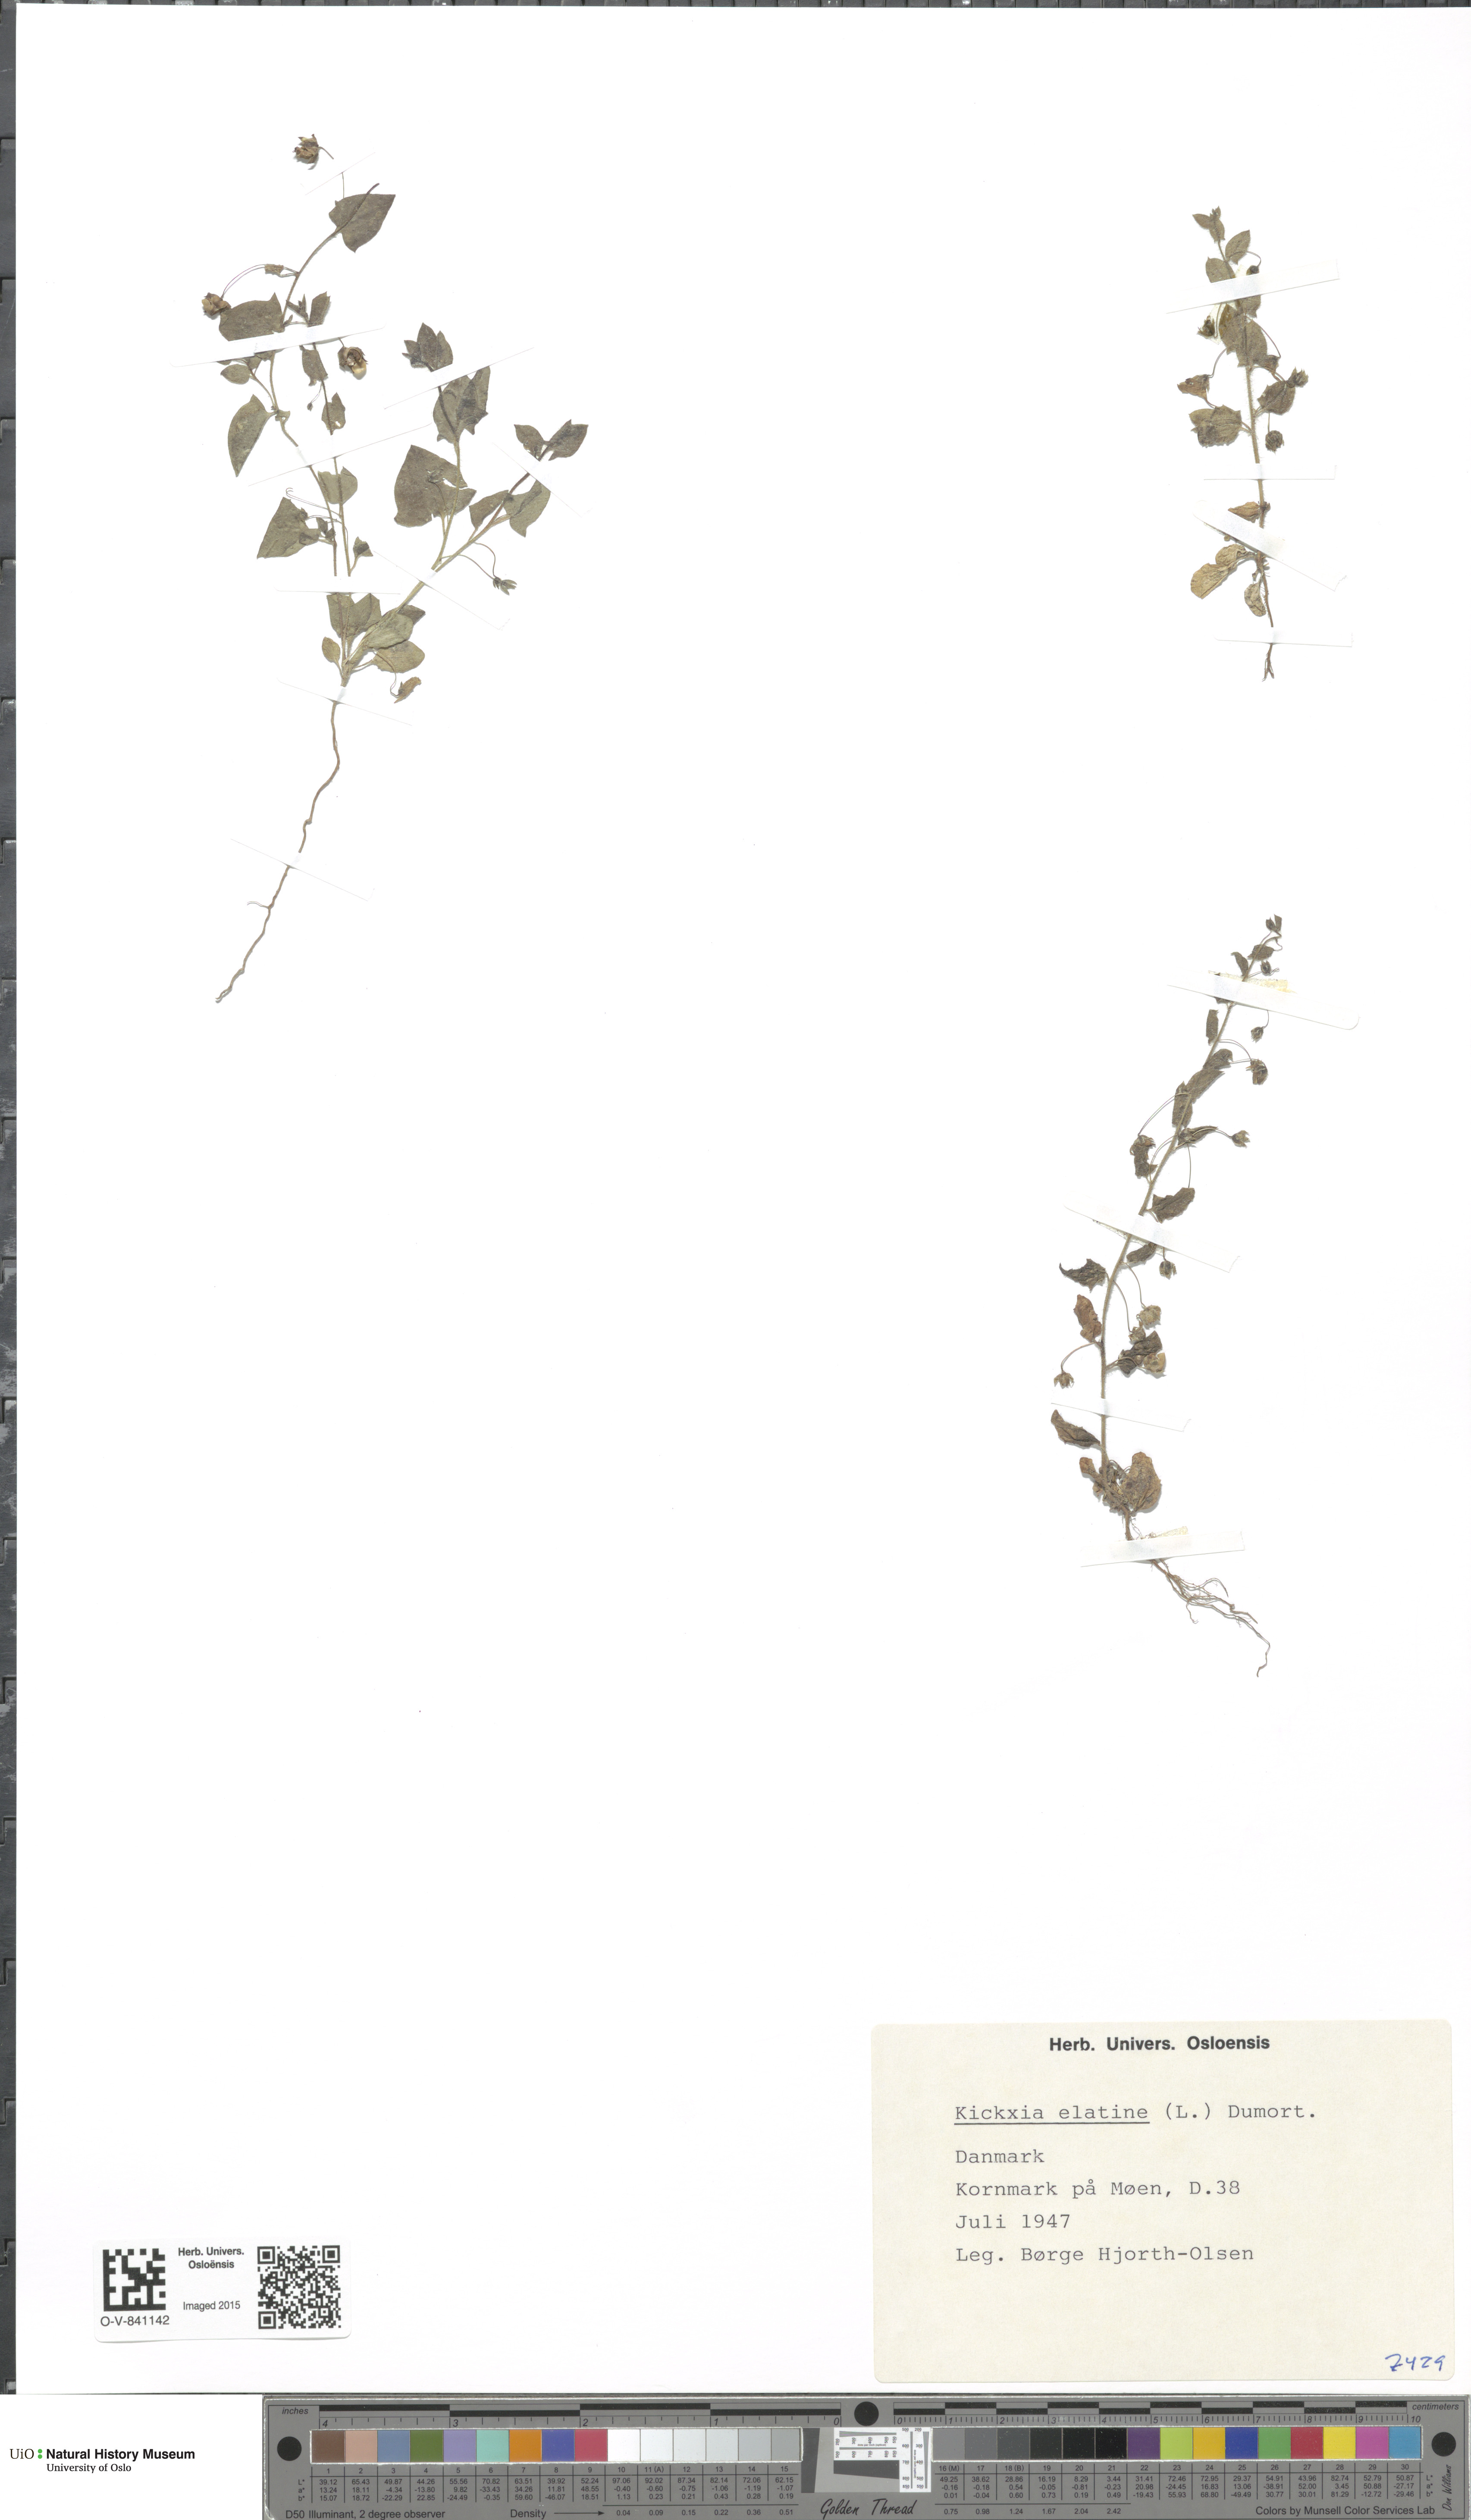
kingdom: Plantae
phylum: Tracheophyta
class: Magnoliopsida
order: Lamiales
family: Plantaginaceae
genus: Kickxia
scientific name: Kickxia elatine
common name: Sharp-leaved fluellen
